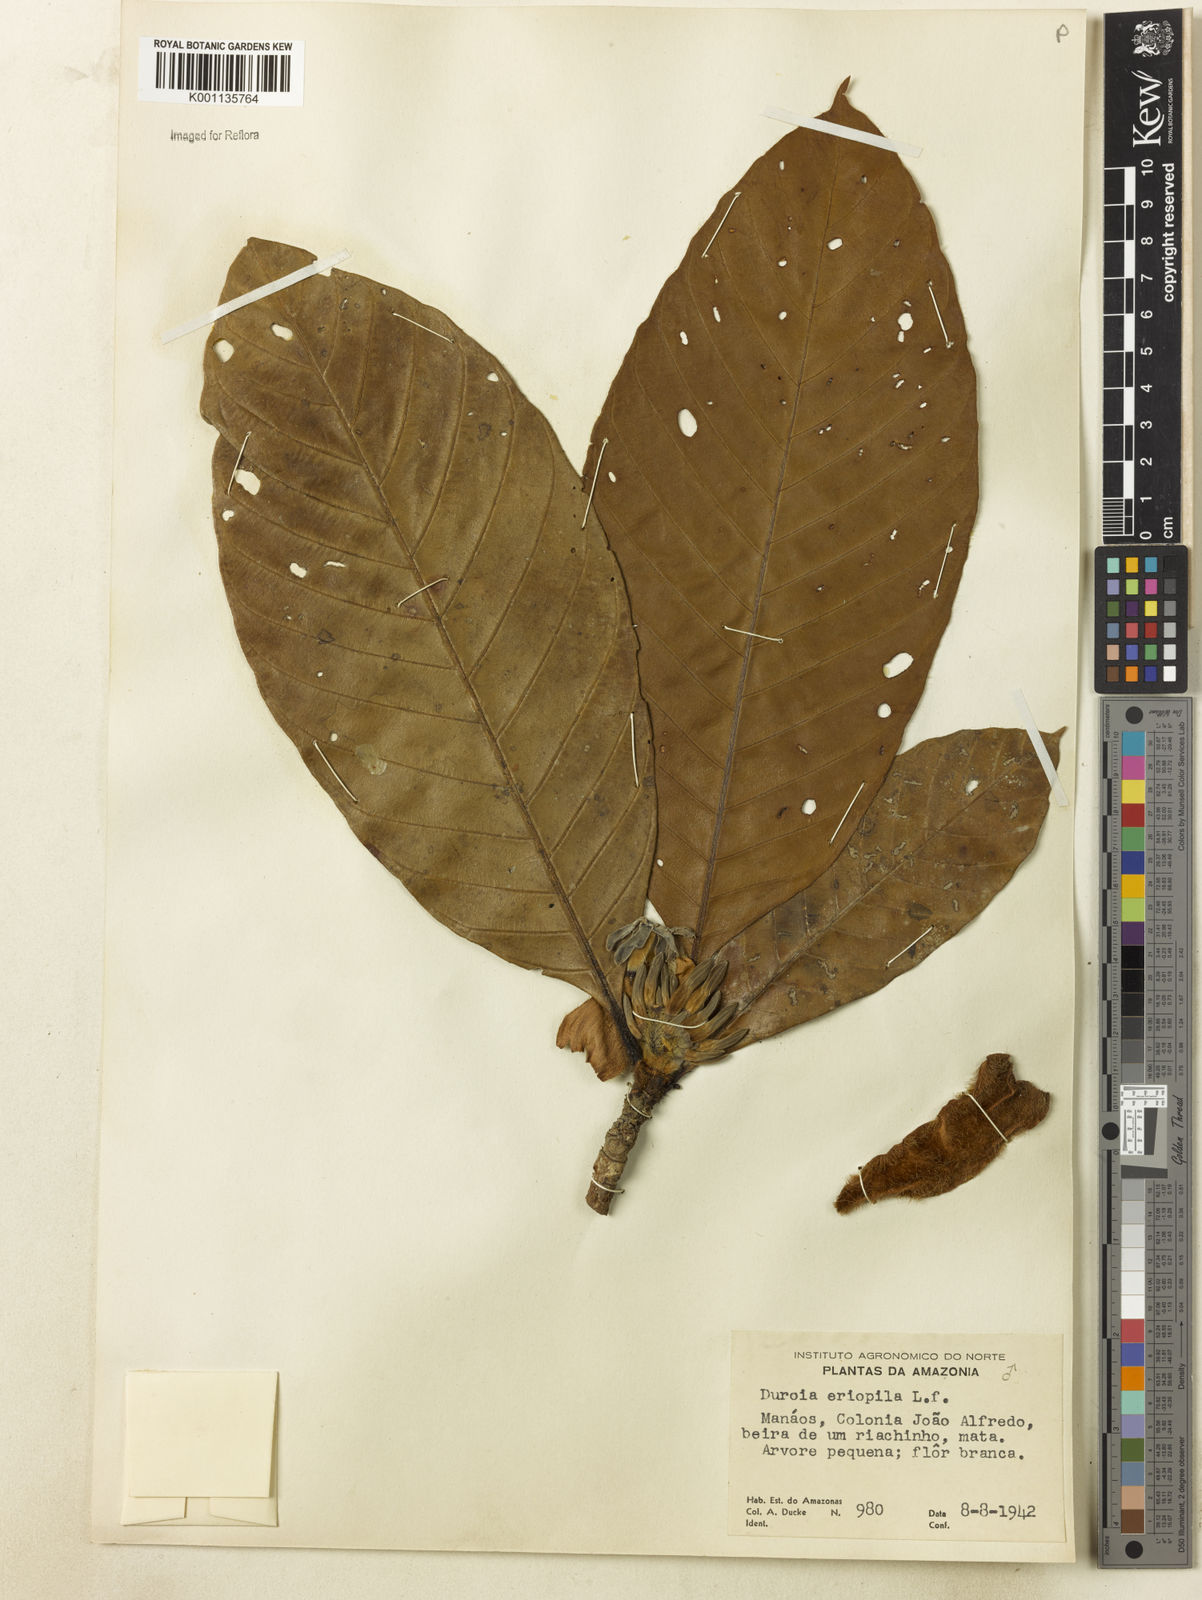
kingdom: Plantae
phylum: Tracheophyta
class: Magnoliopsida
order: Gentianales
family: Rubiaceae
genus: Duroia
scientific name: Duroia eriopila
